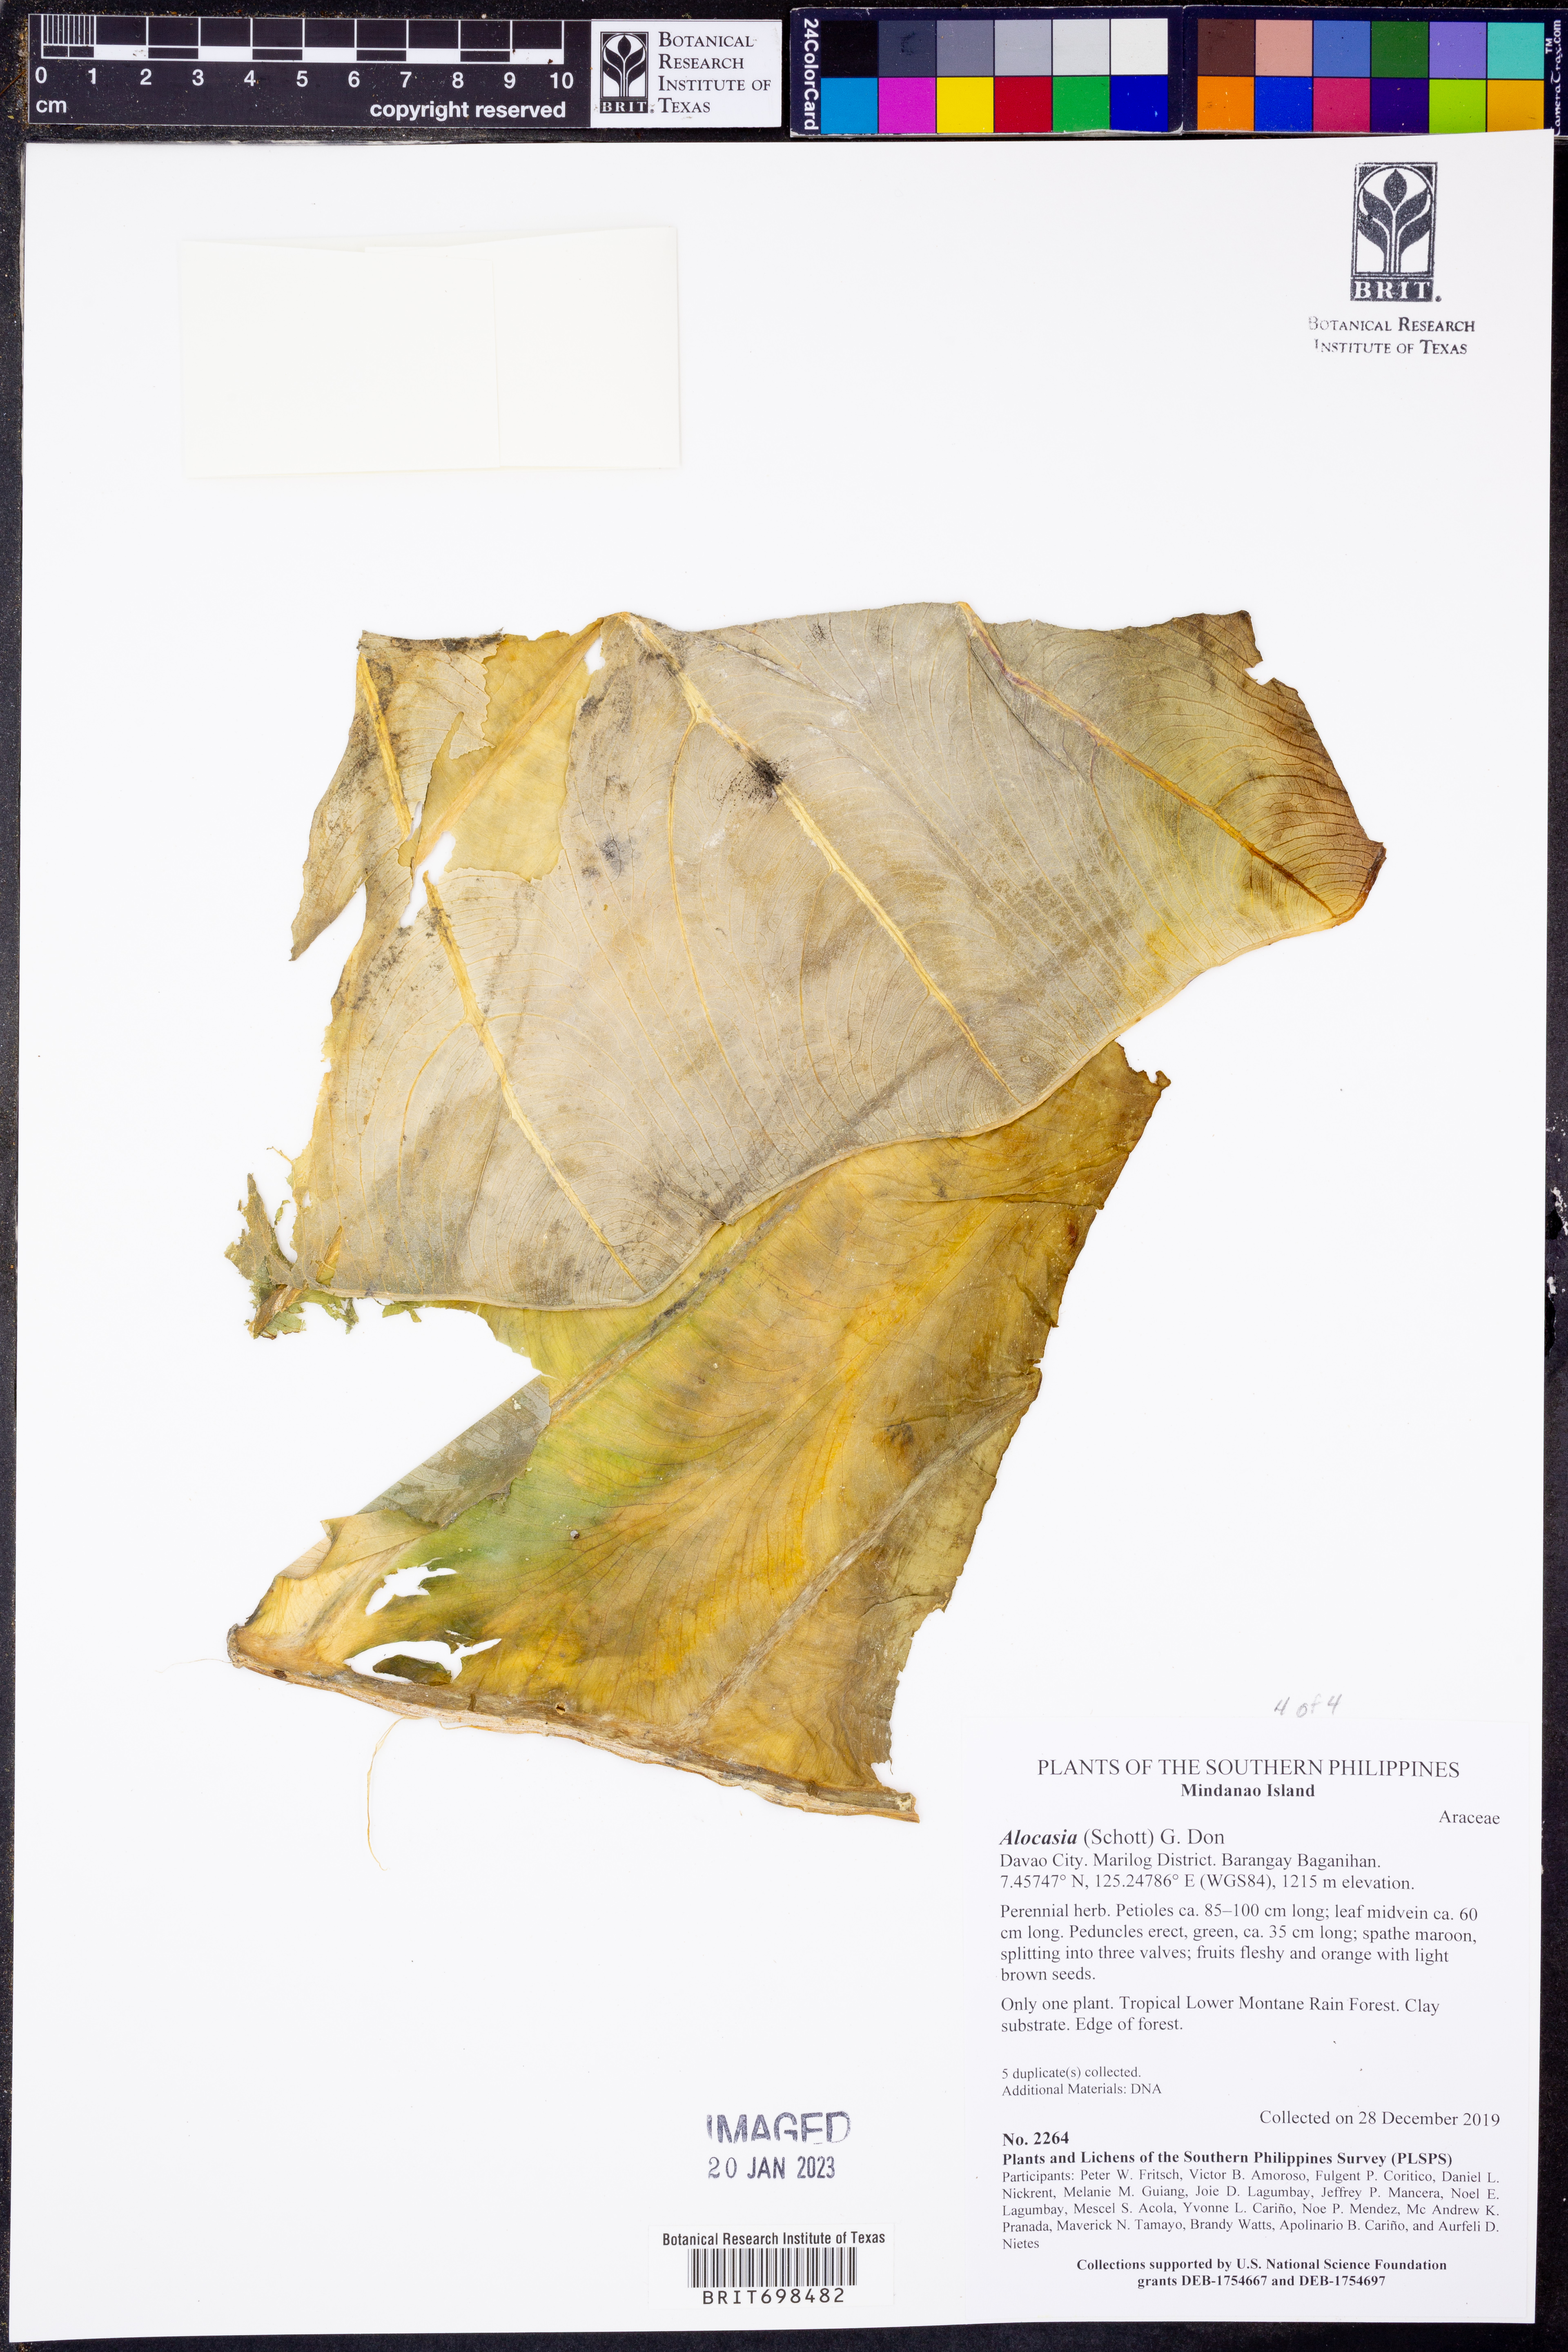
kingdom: Plantae
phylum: Tracheophyta
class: Liliopsida
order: Alismatales
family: Araceae
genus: Alocasia
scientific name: Alocasia
